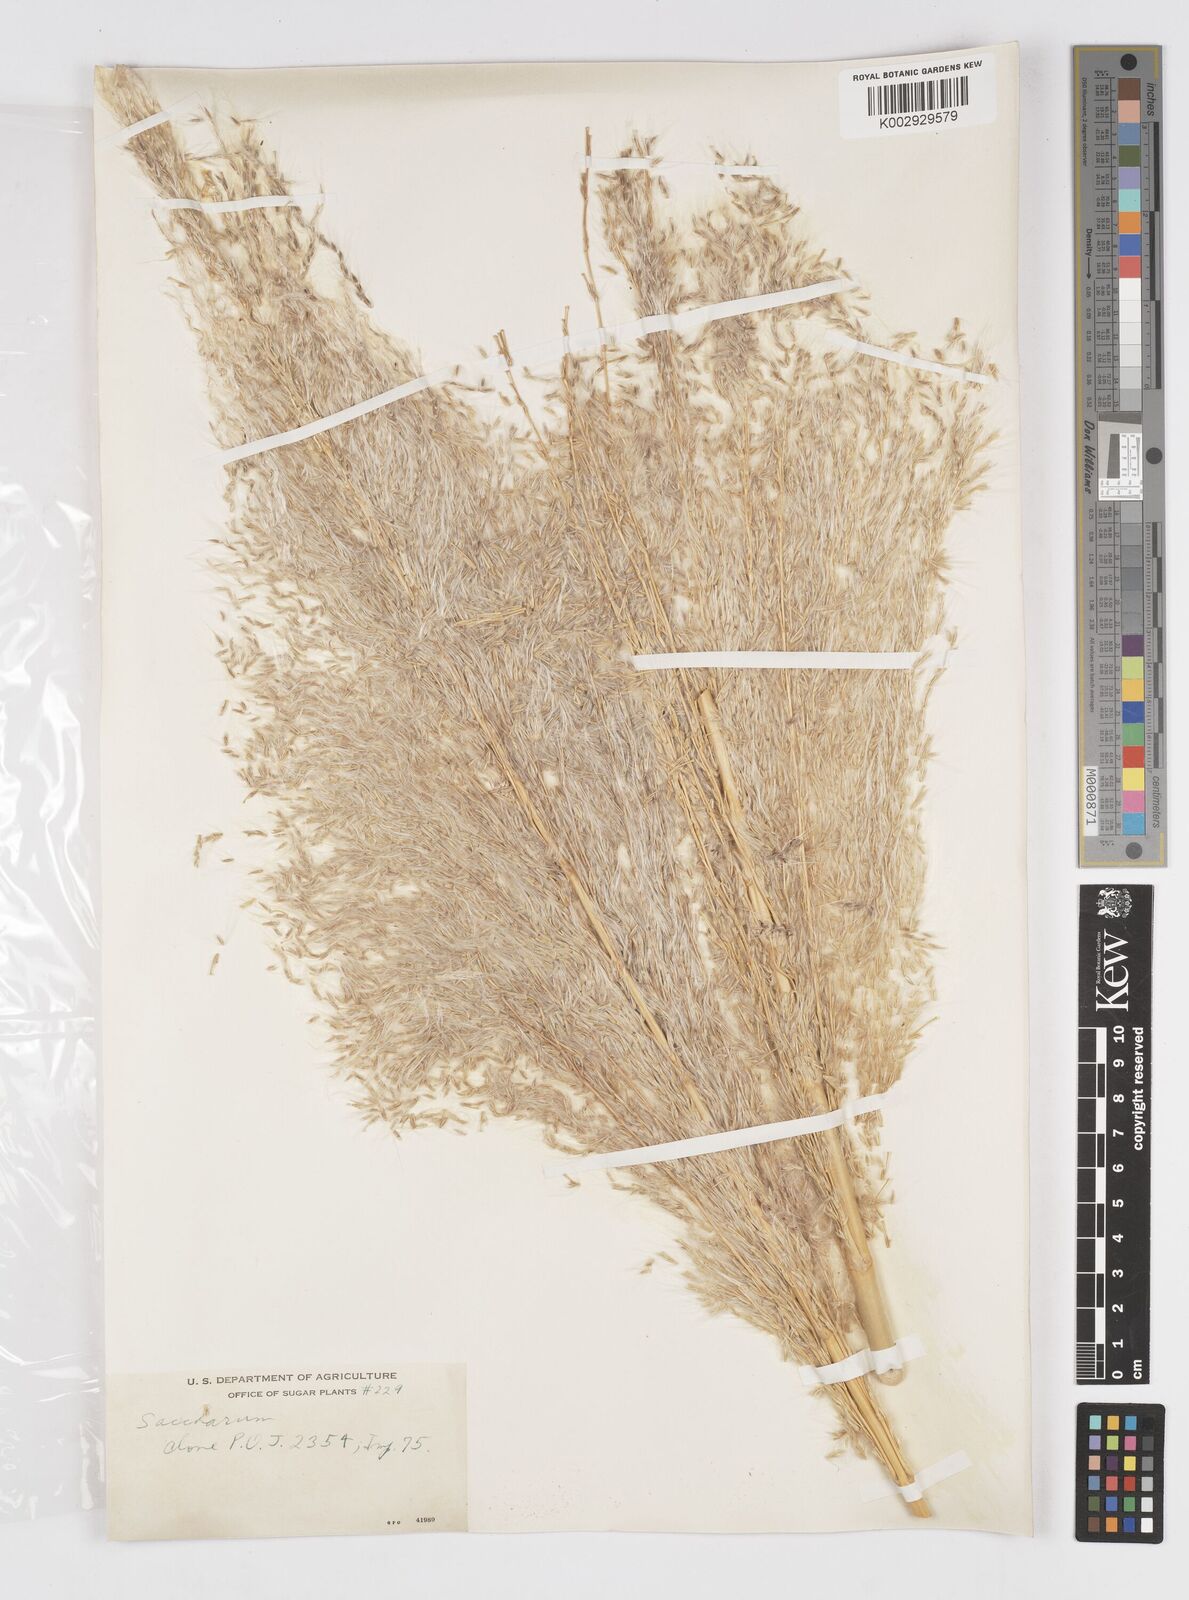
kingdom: Plantae
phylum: Tracheophyta
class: Liliopsida
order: Poales
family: Poaceae
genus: Saccharum
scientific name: Saccharum officinarum
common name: Sugarcane
